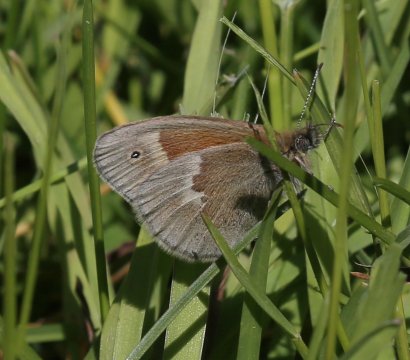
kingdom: Animalia
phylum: Arthropoda
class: Insecta
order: Lepidoptera
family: Nymphalidae
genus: Coenonympha
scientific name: Coenonympha tullia
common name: Large Heath
